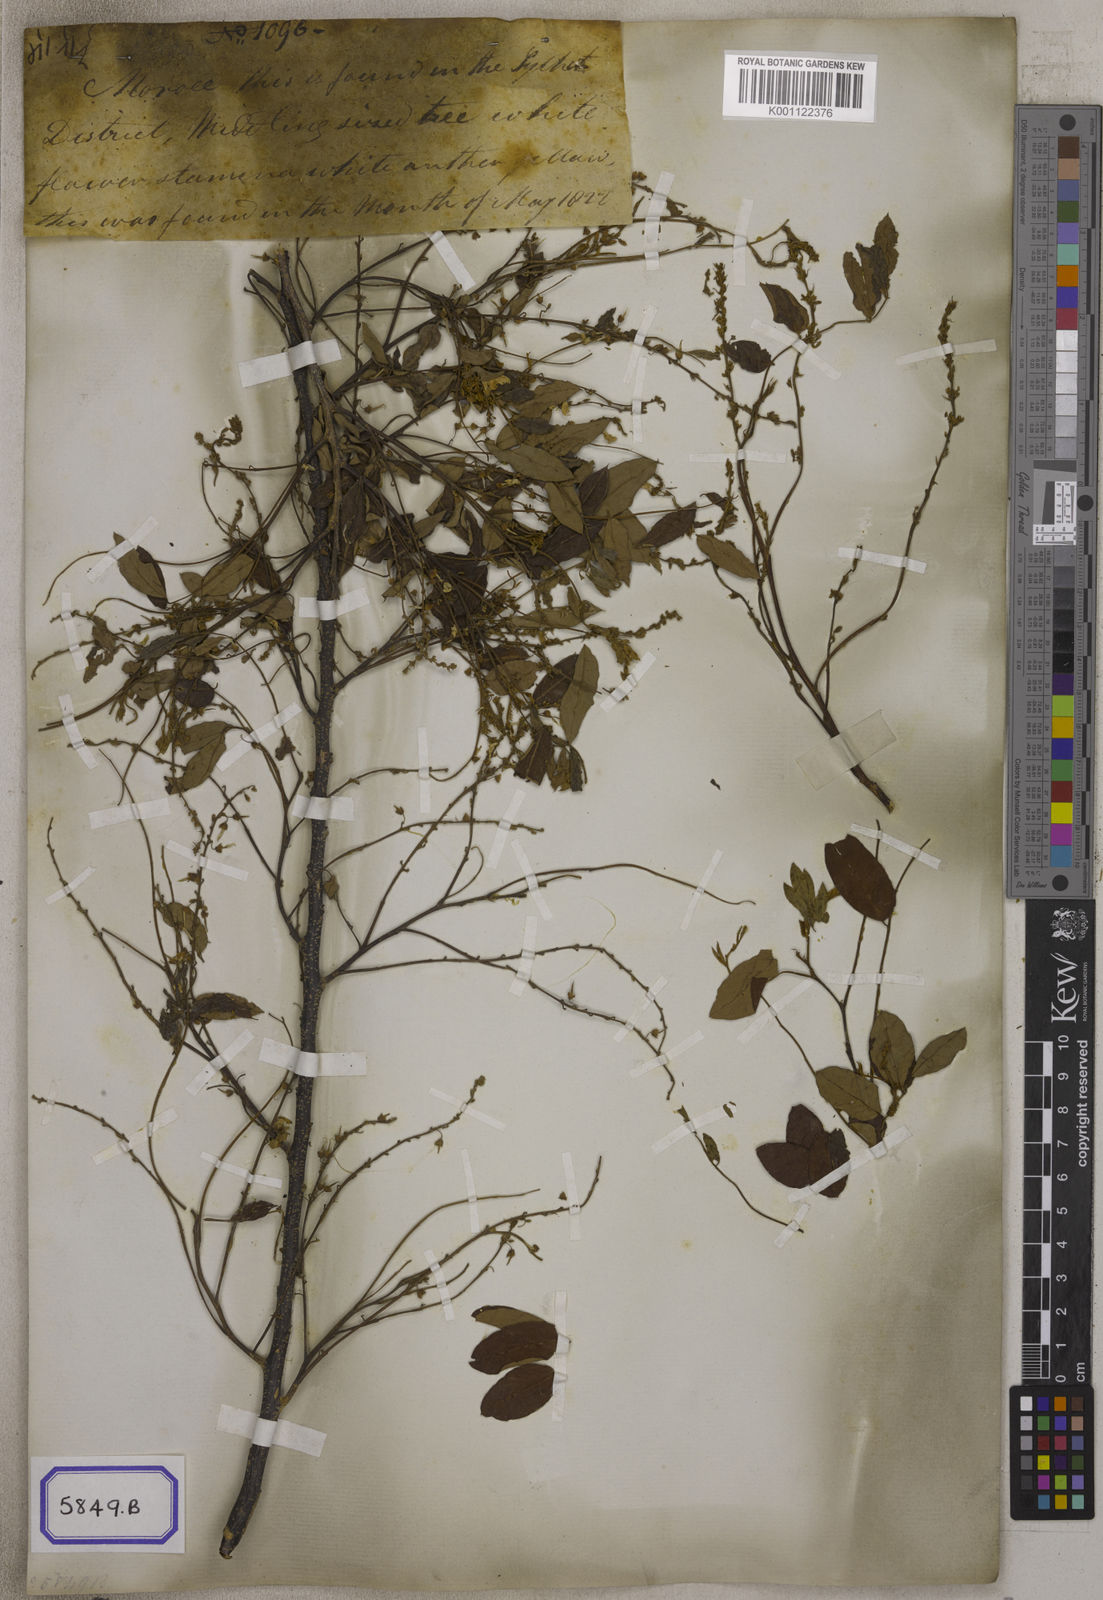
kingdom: Plantae
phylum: Tracheophyta
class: Magnoliopsida
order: Fabales
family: Fabaceae
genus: Dalbergia
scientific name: Dalbergia
